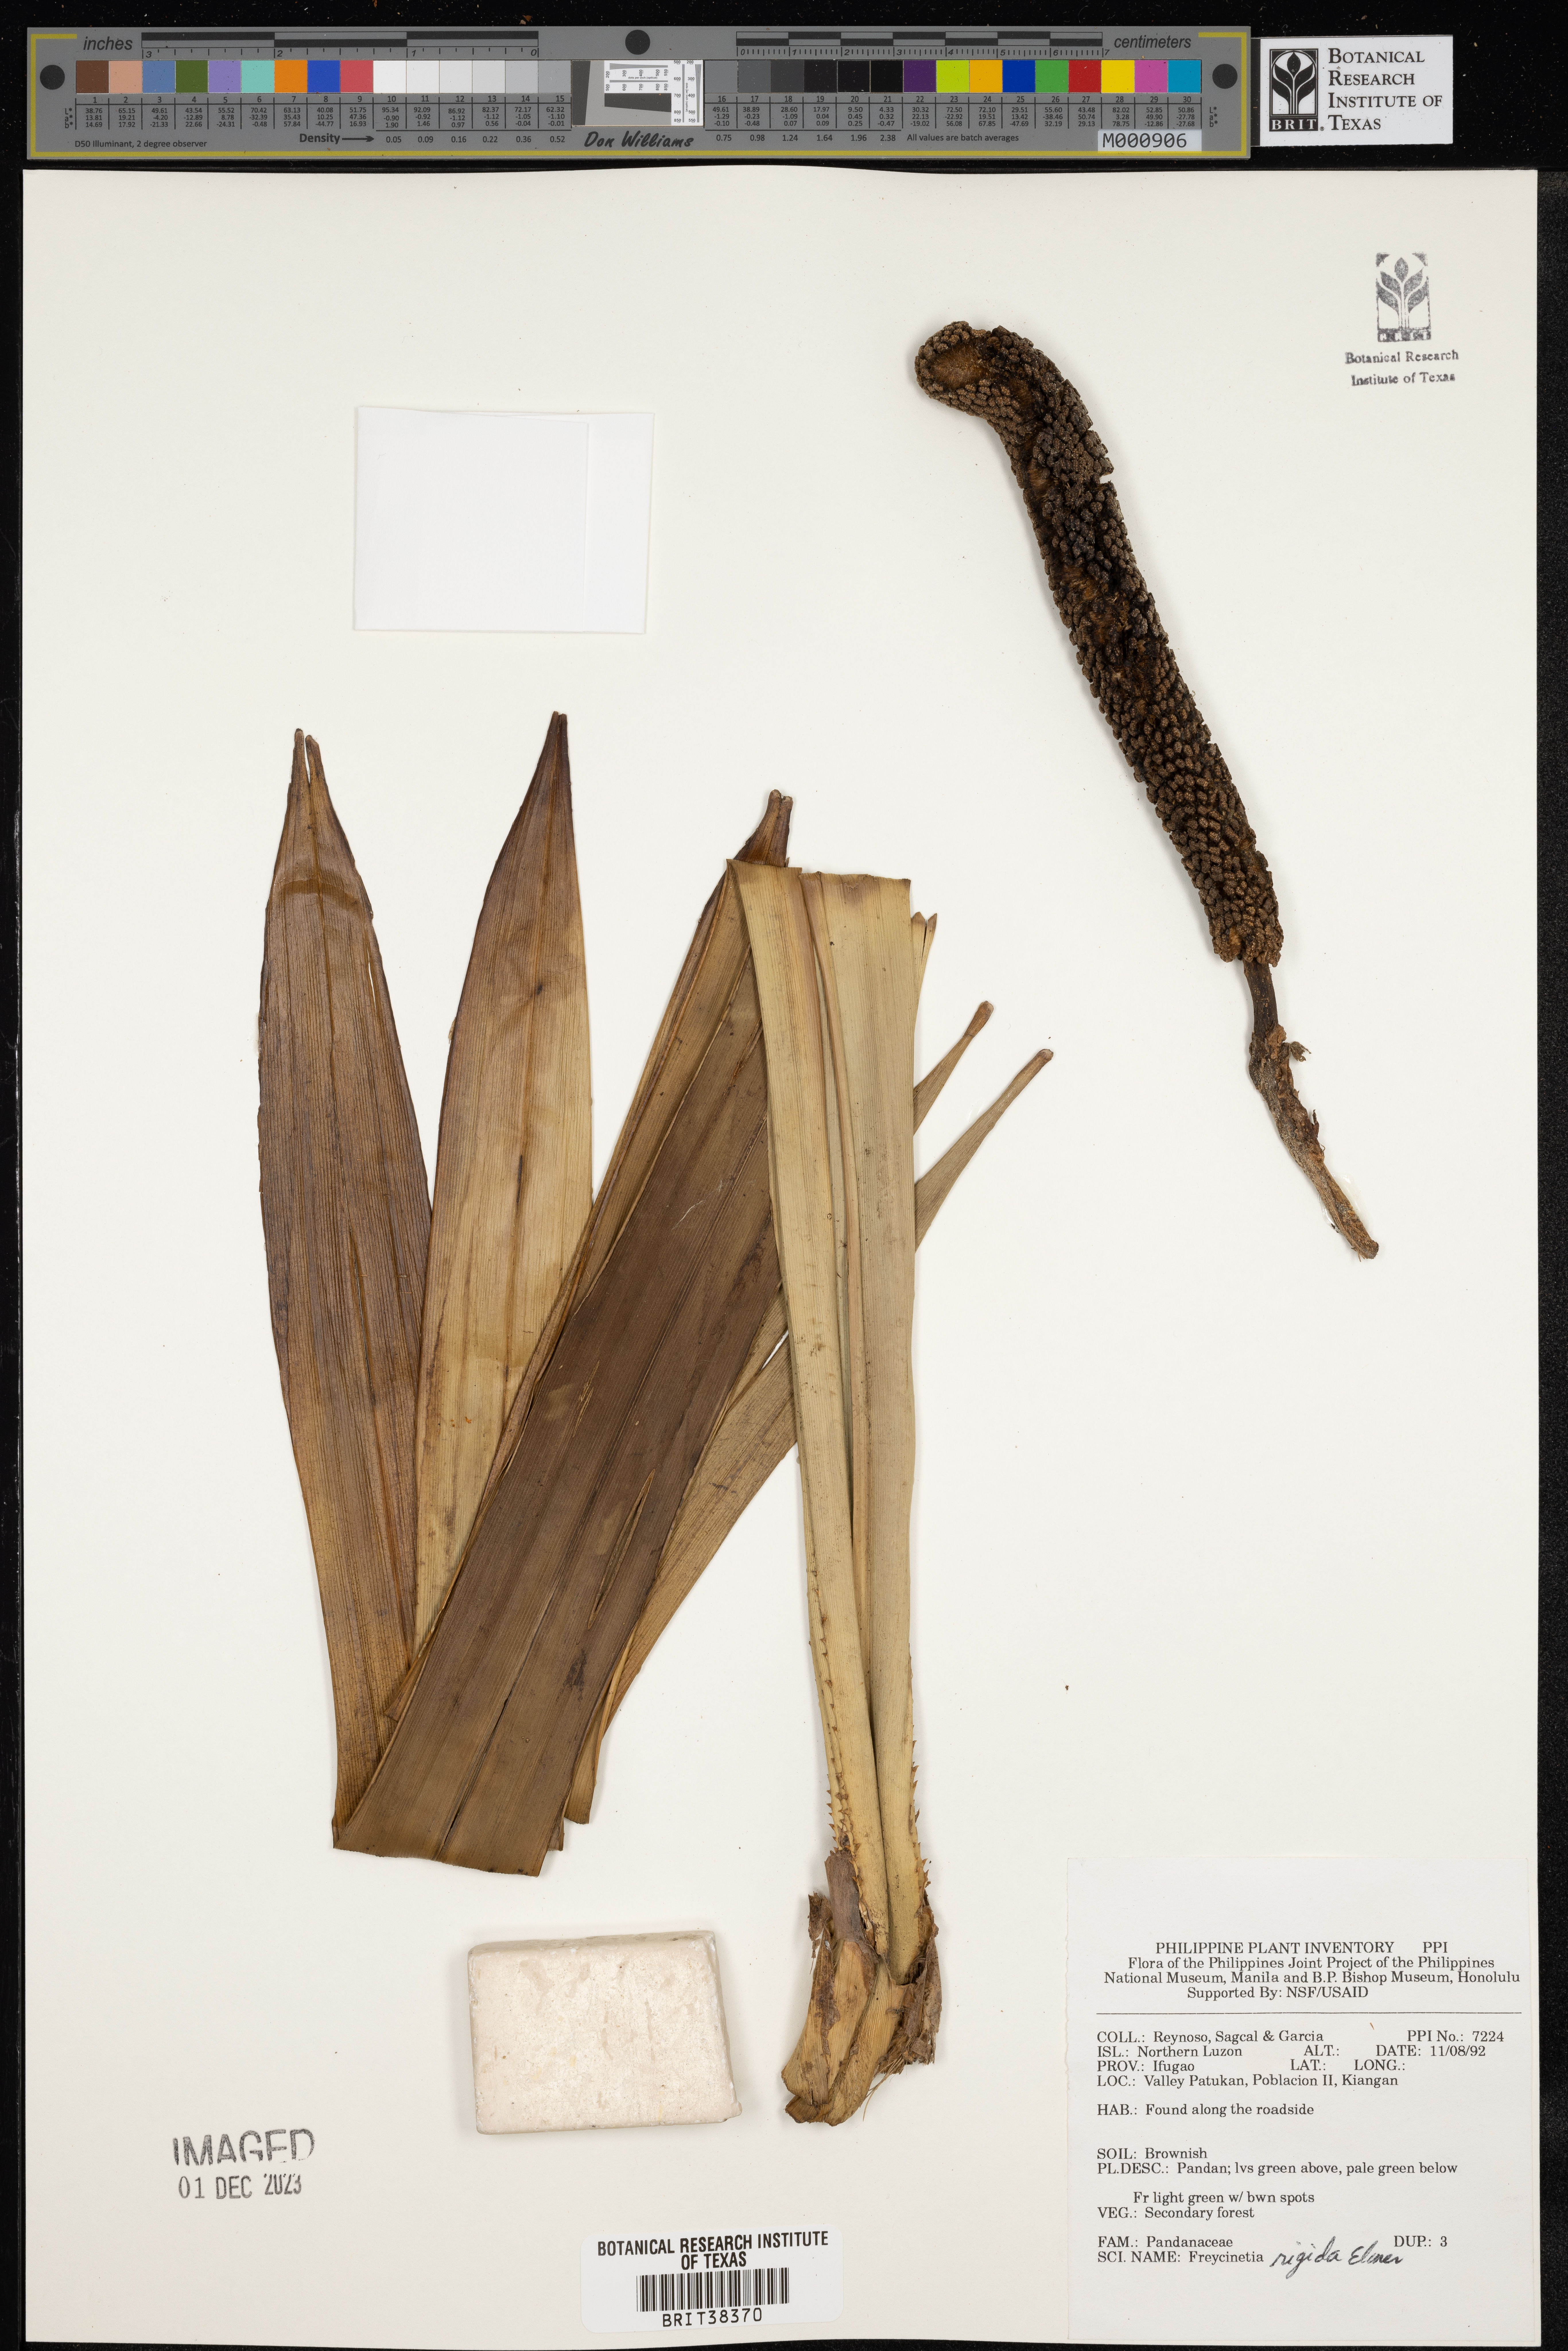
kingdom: Plantae
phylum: Tracheophyta
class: Liliopsida
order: Pandanales
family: Pandanaceae
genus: Freycinetia
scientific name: Freycinetia rigida
